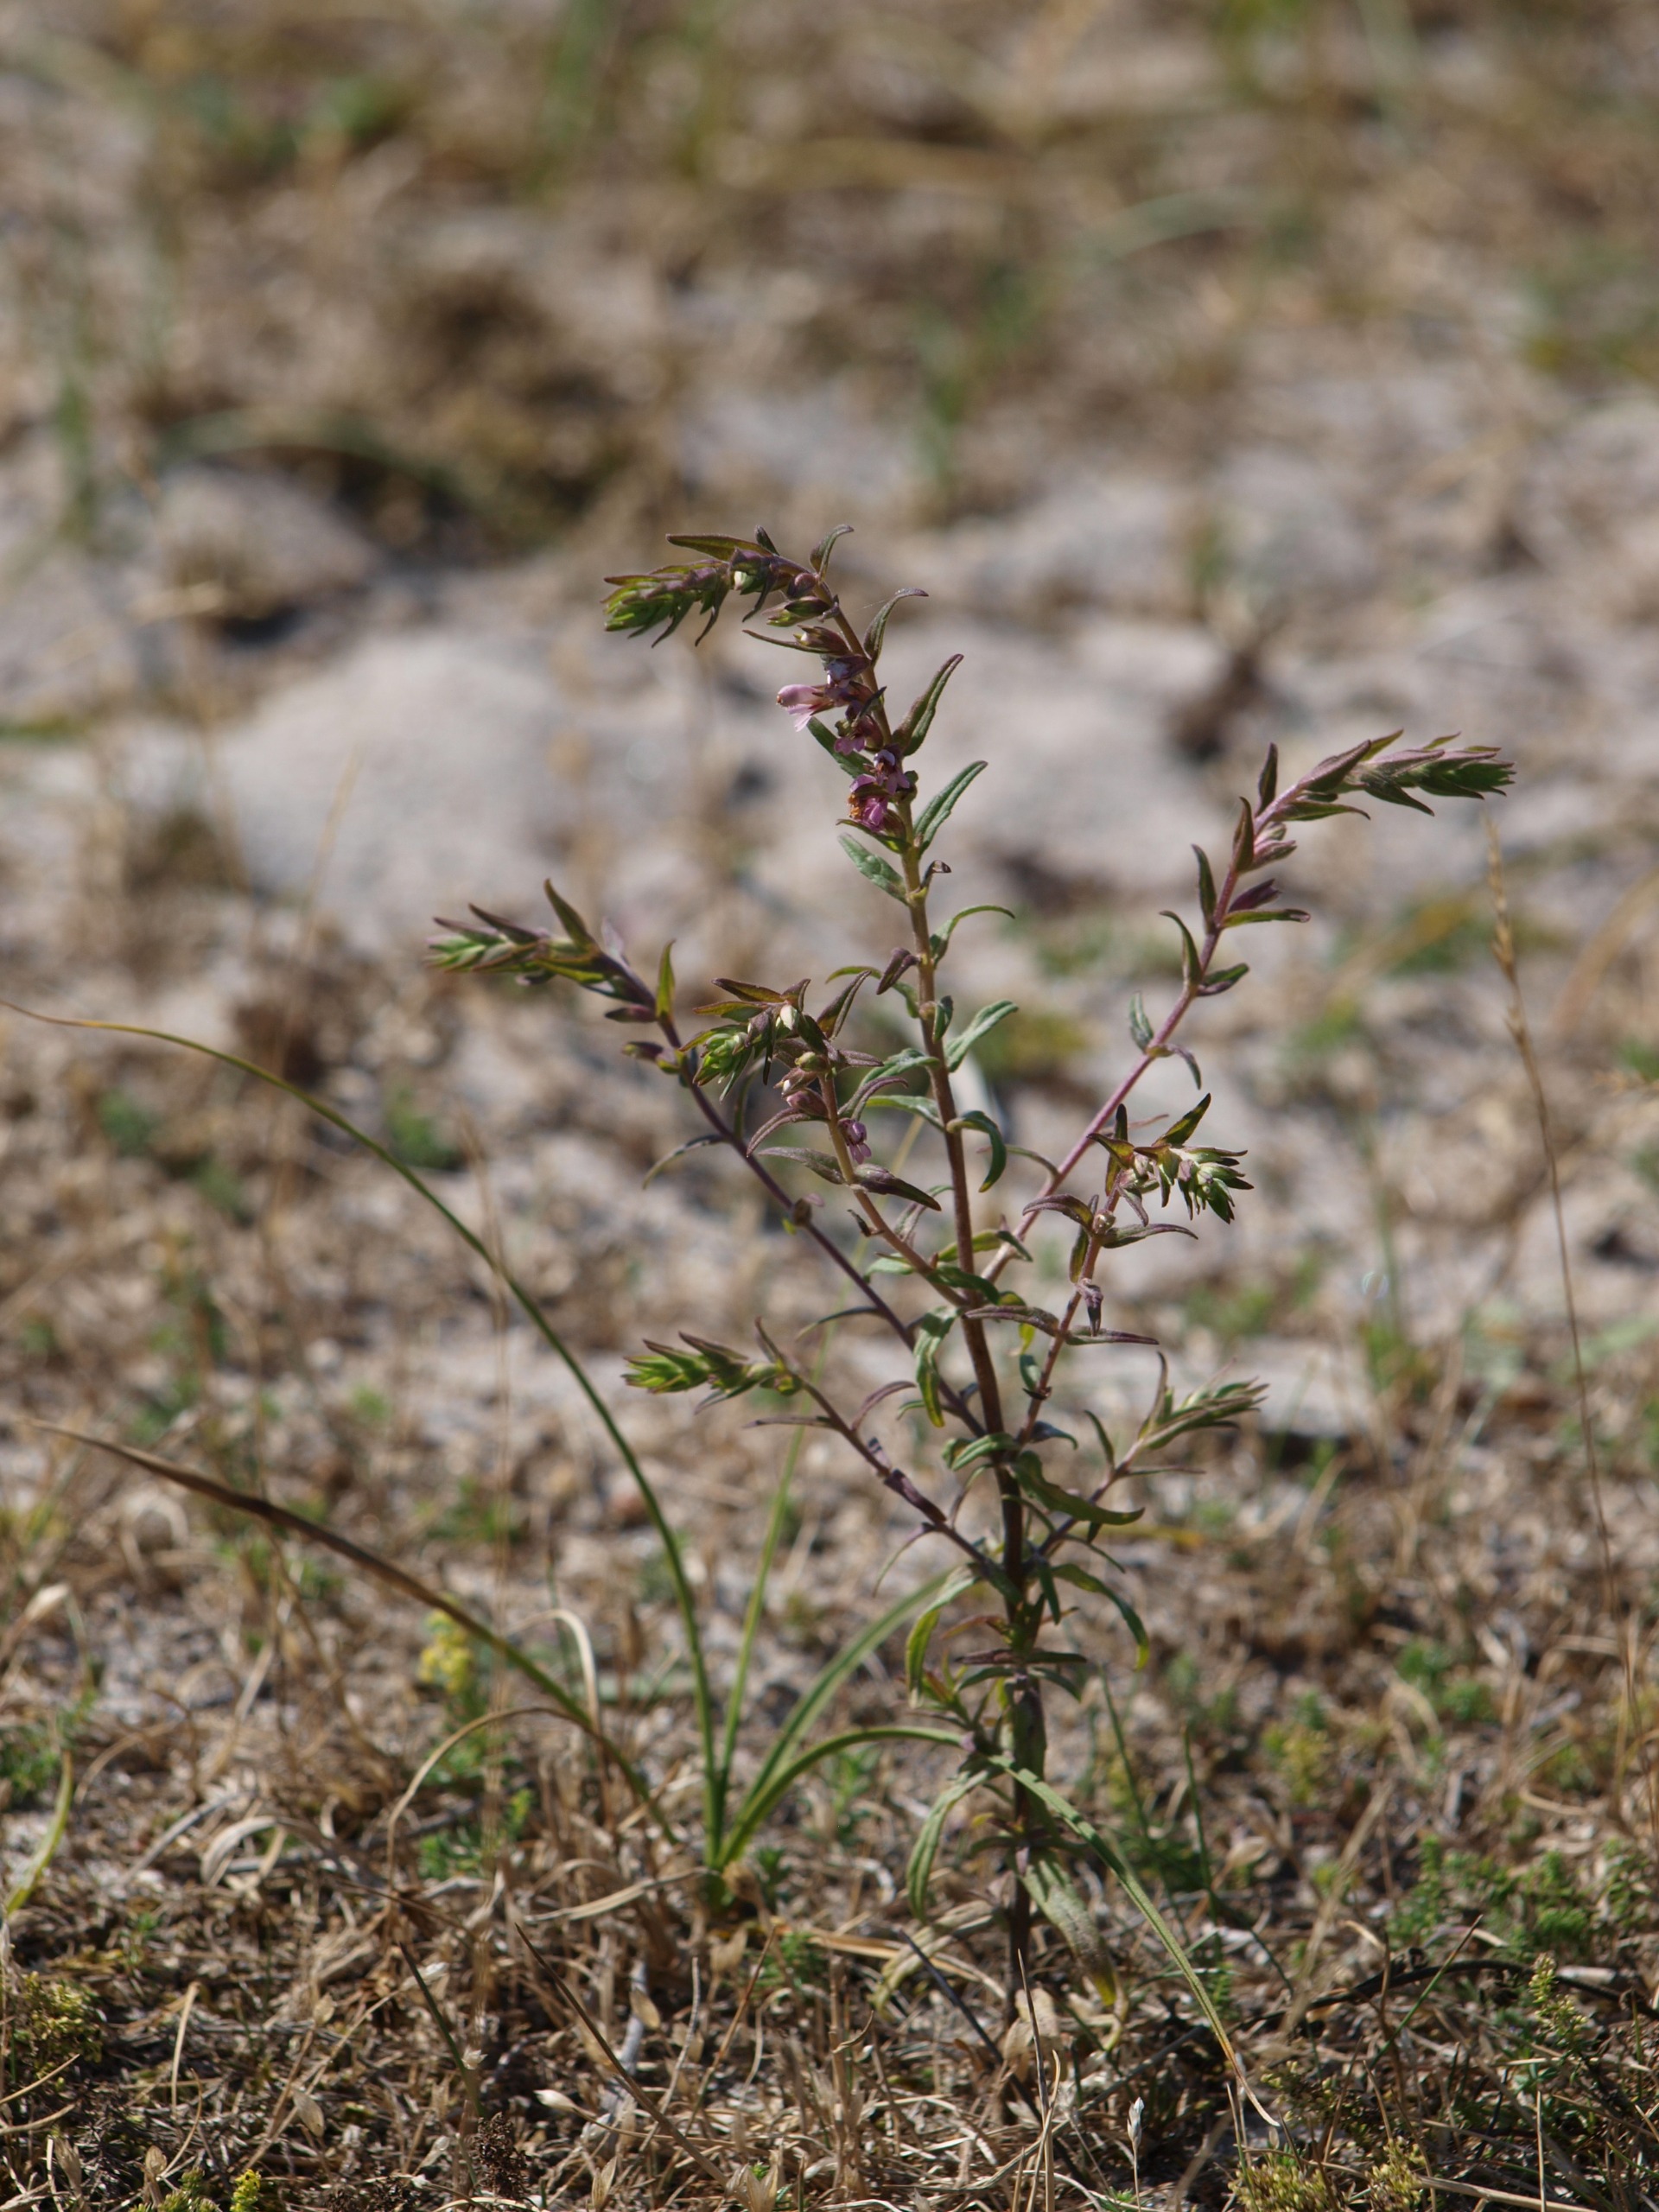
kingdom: Plantae
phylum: Tracheophyta
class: Magnoliopsida
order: Lamiales
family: Orobanchaceae
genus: Odontites
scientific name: Odontites vernus
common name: Mark-rødtop
